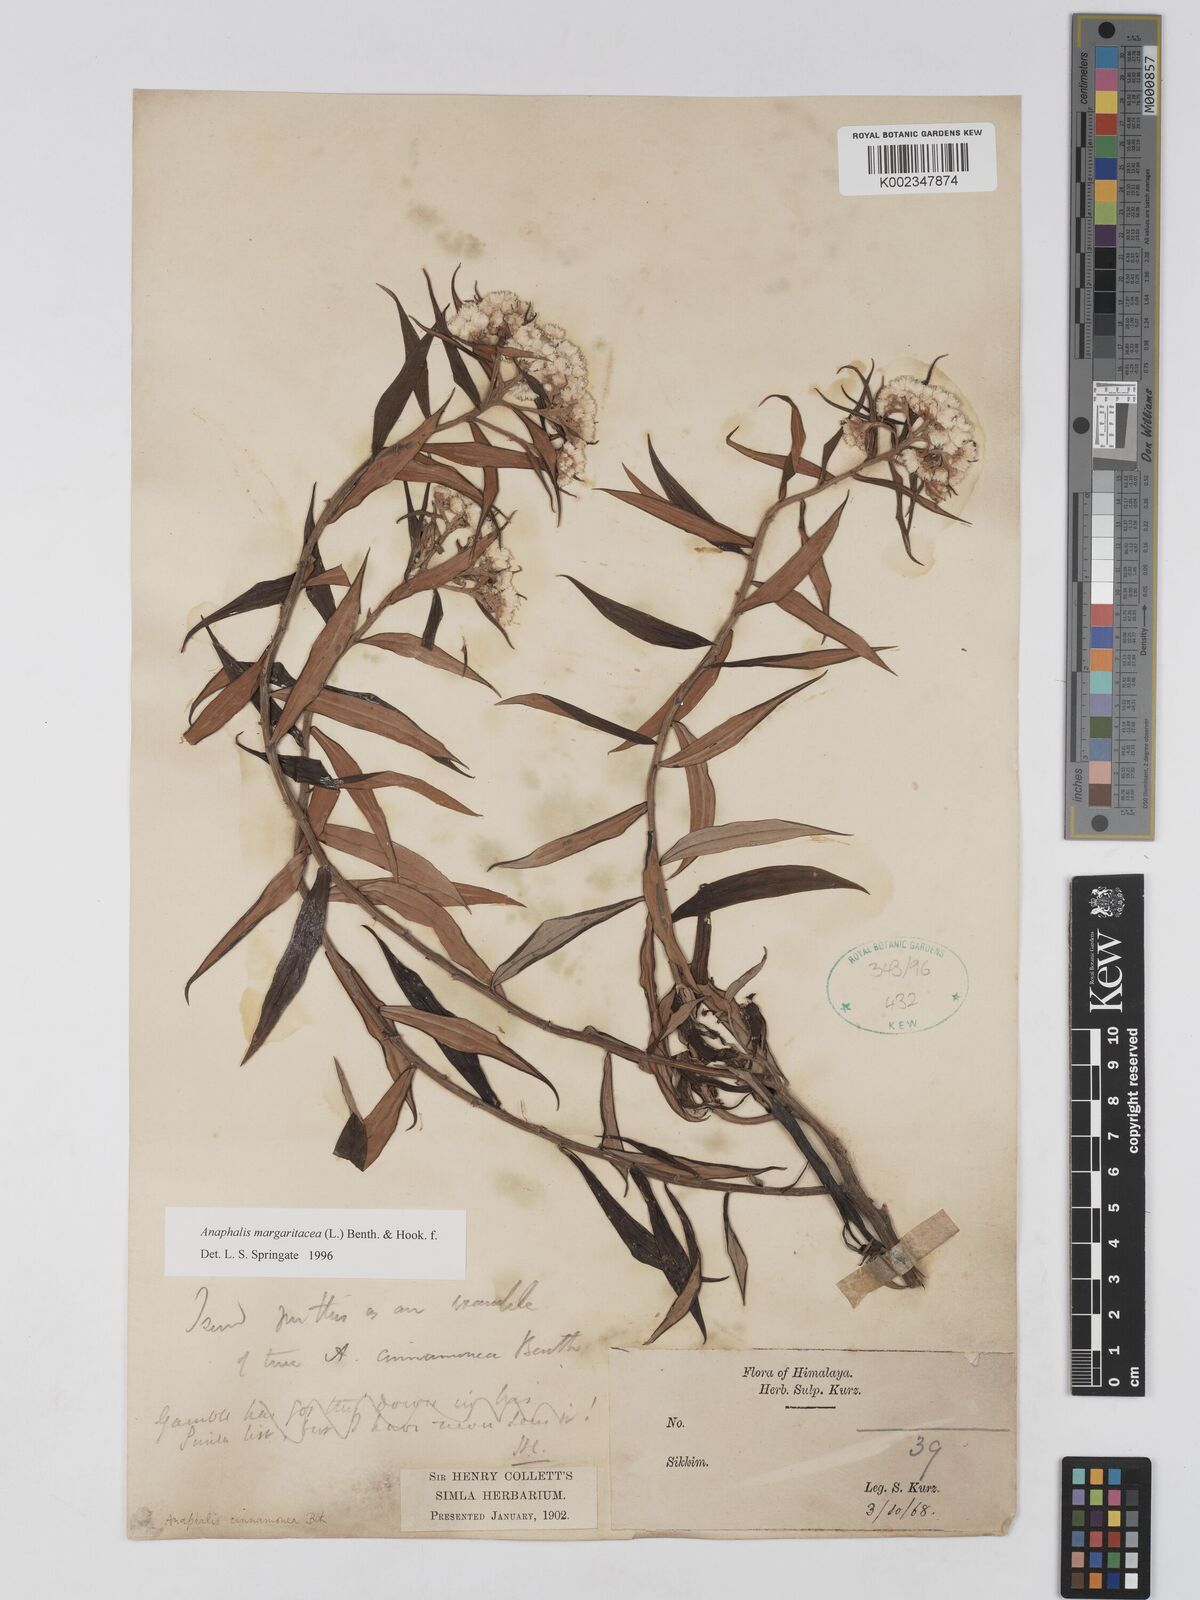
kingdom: Plantae
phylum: Tracheophyta
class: Magnoliopsida
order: Asterales
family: Asteraceae
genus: Anaphalis
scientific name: Anaphalis margaritacea
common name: Pearly everlasting
